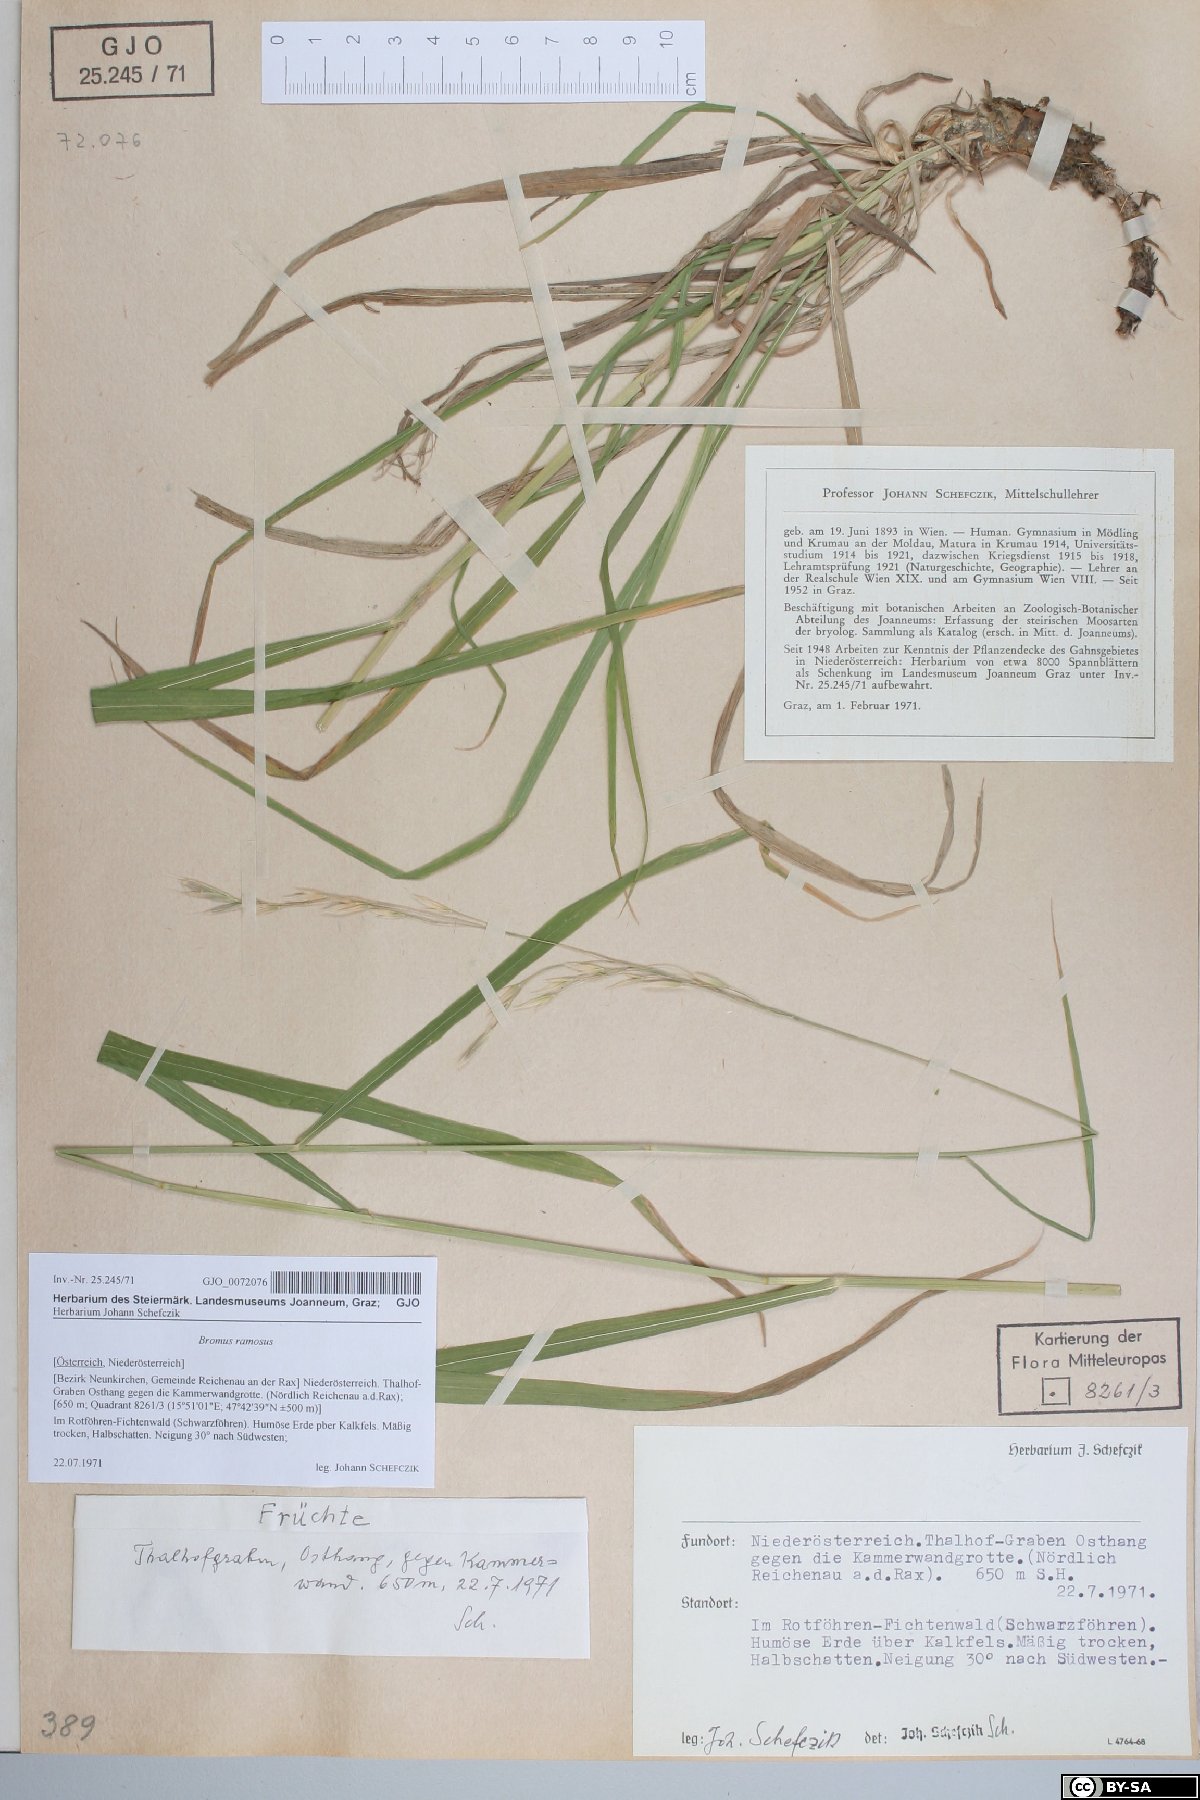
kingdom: Plantae
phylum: Tracheophyta
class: Liliopsida
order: Poales
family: Poaceae
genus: Bromus
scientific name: Bromus ramosus
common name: Hairy brome
